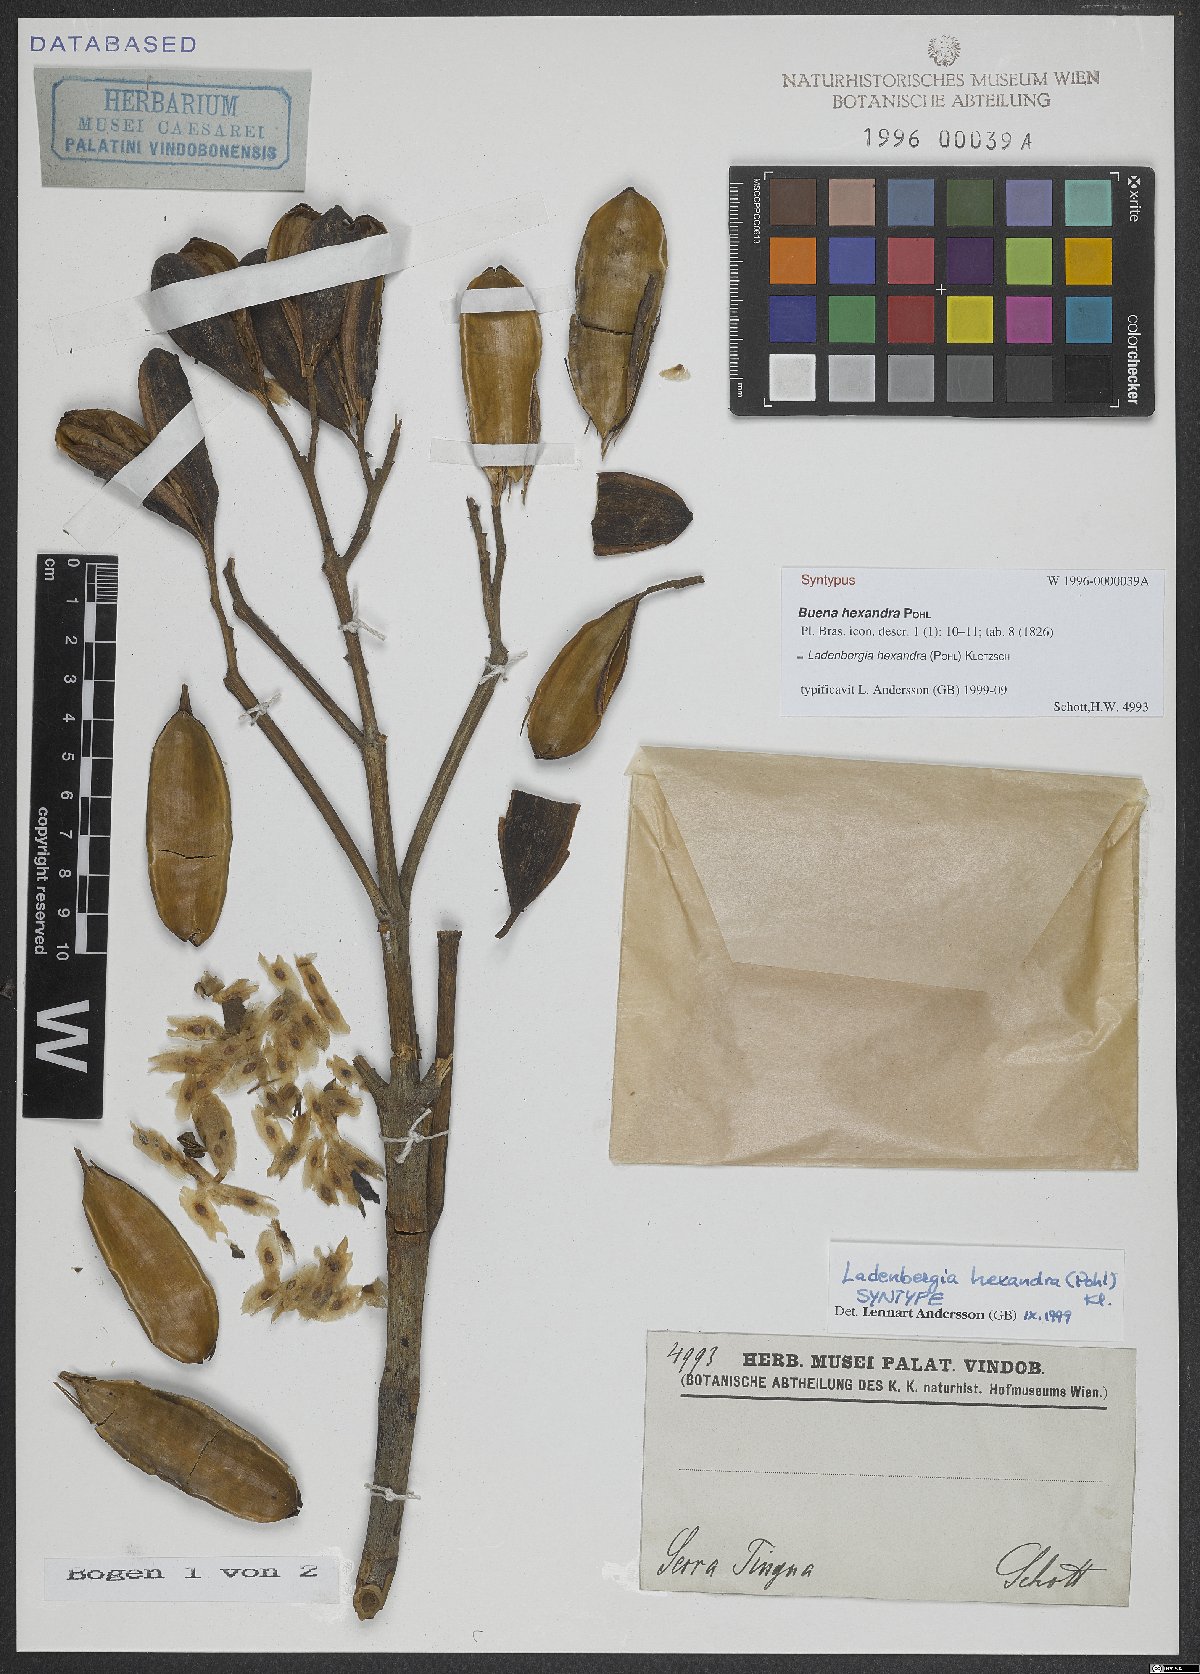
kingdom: Plantae
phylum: Tracheophyta
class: Magnoliopsida
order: Gentianales
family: Rubiaceae
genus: Ladenbergia
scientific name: Ladenbergia hexandra
